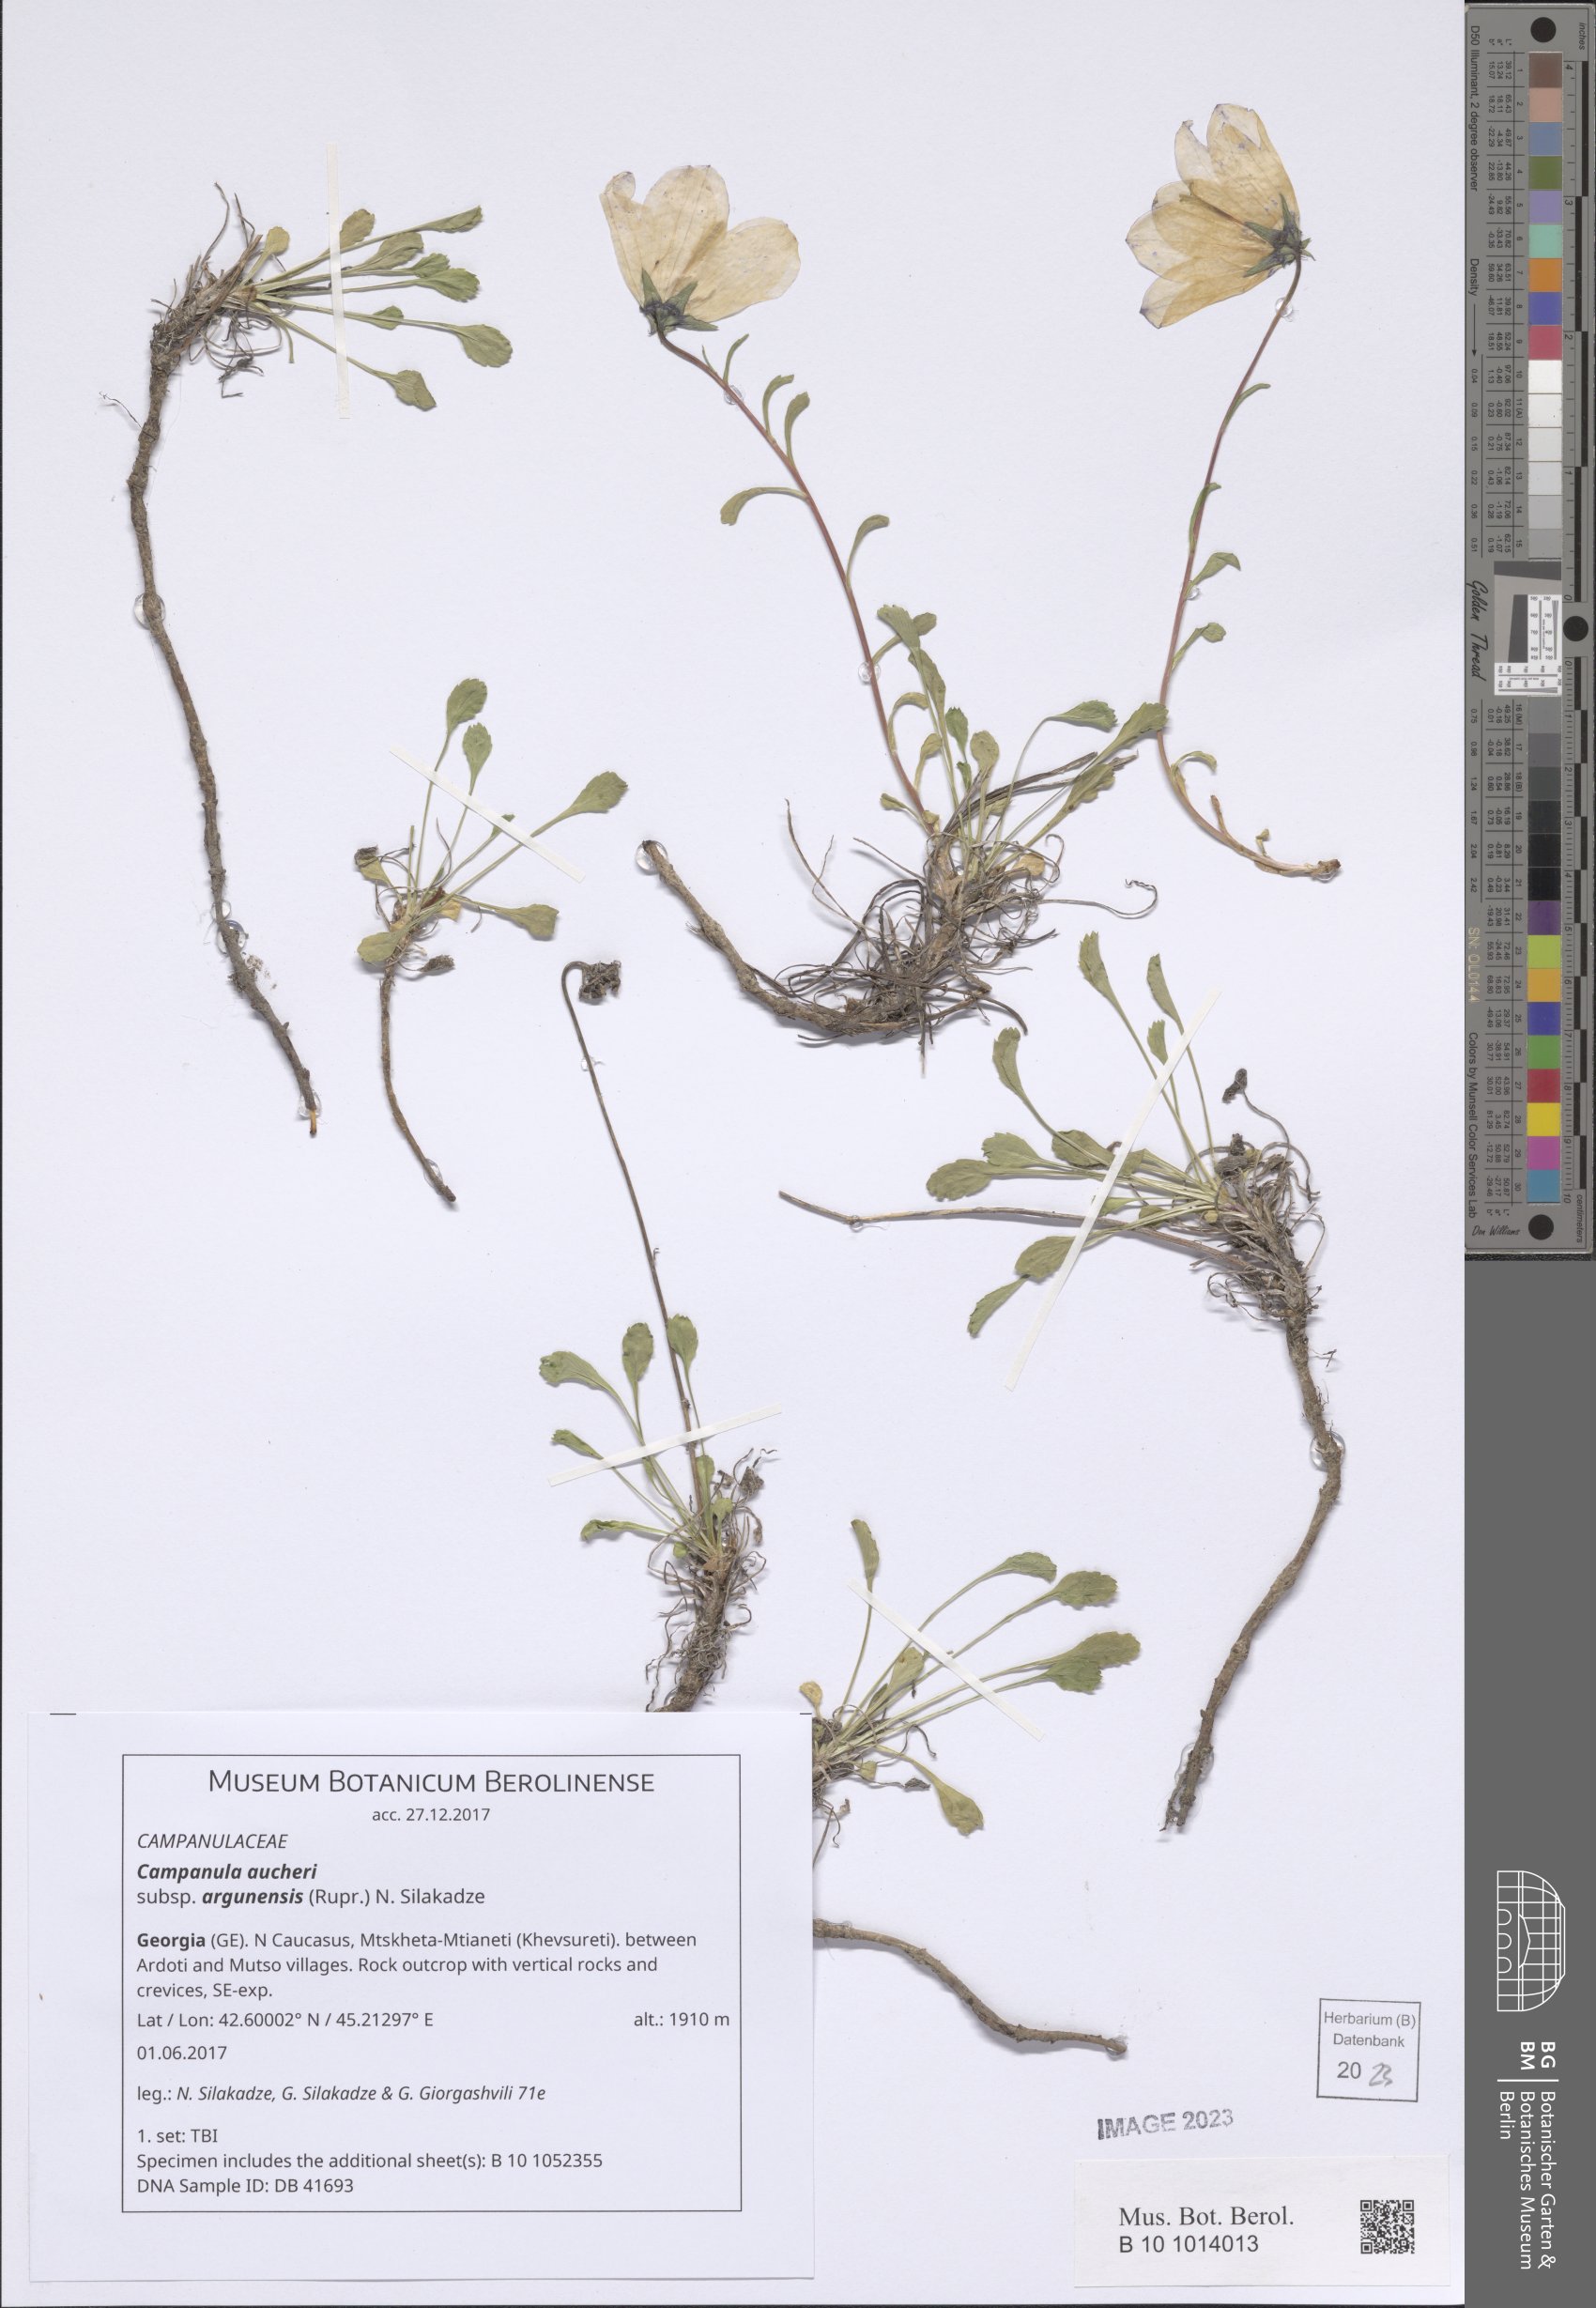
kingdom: Plantae
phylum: Tracheophyta
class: Magnoliopsida
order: Asterales
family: Campanulaceae
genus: Campanula
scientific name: Campanula saxifraga
